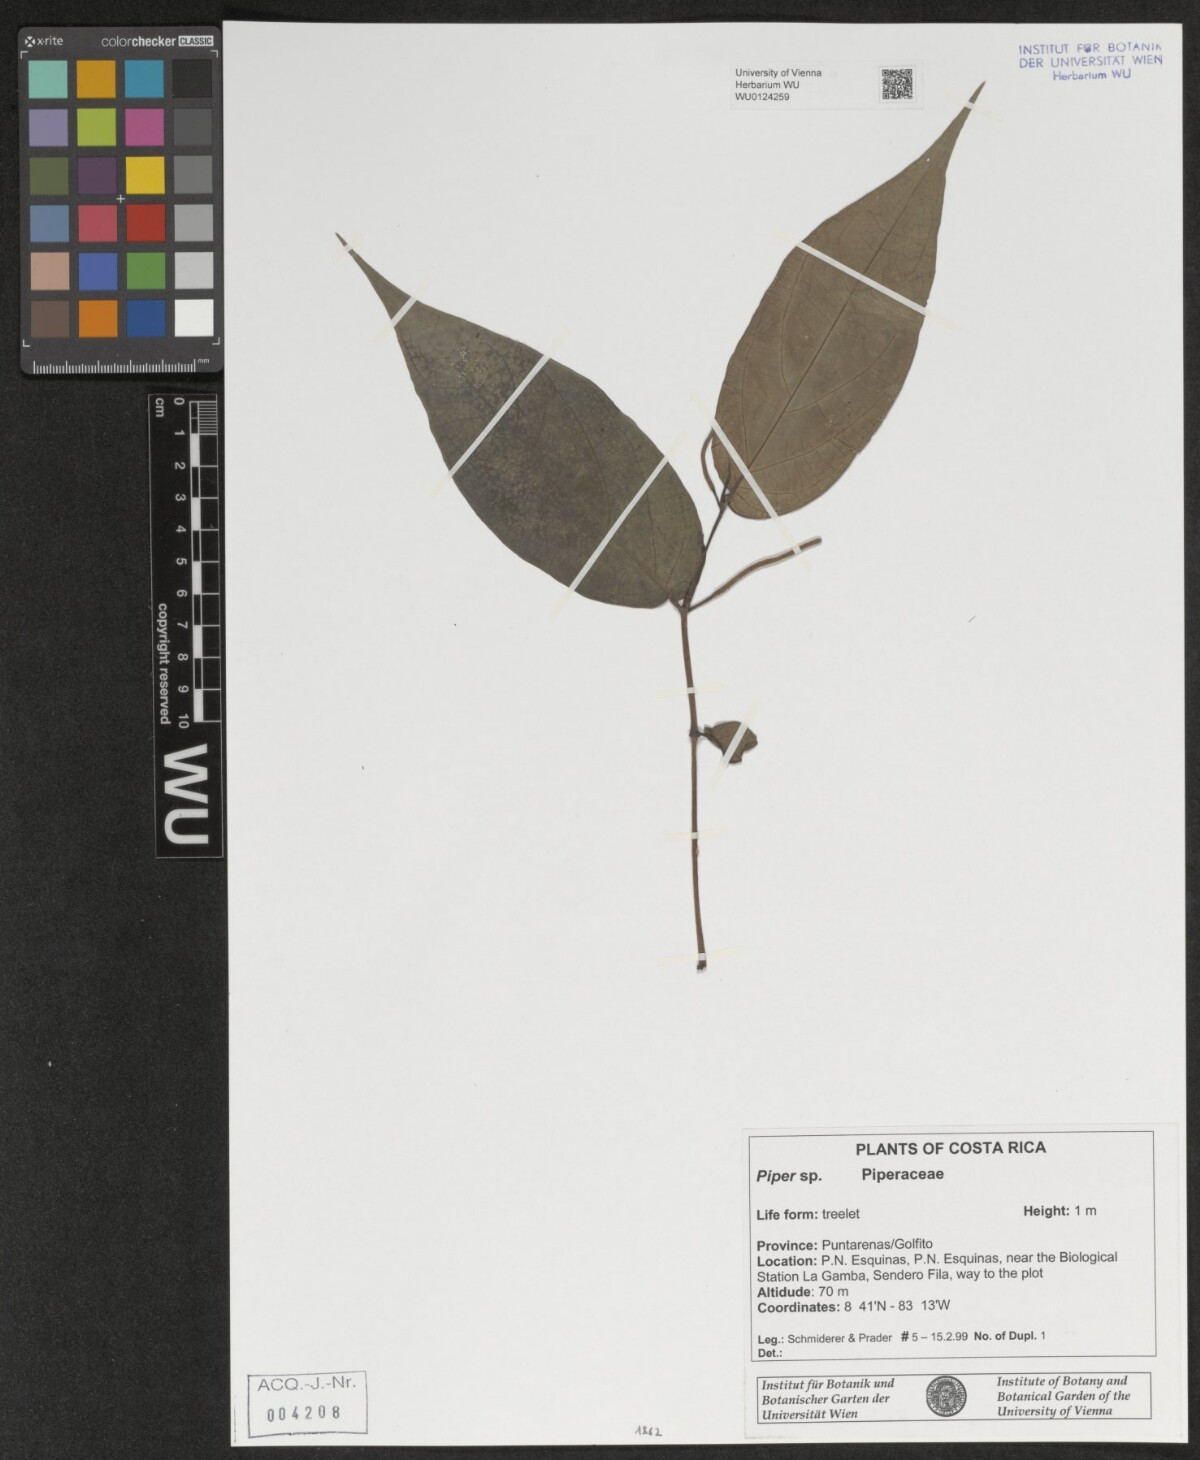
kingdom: Plantae
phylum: Tracheophyta
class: Magnoliopsida
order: Piperales
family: Piperaceae
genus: Piper
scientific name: Piper
